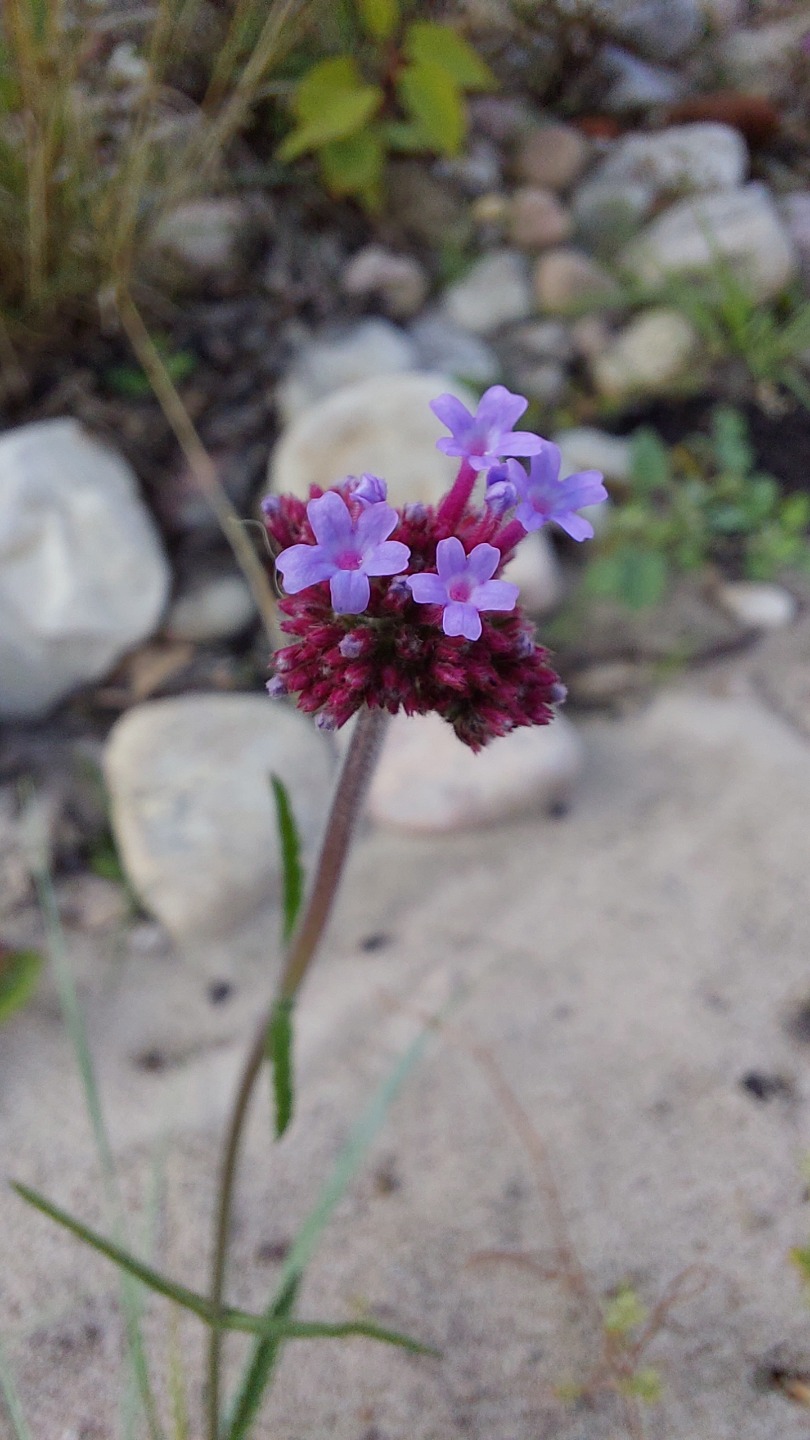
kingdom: Plantae
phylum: Tracheophyta
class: Magnoliopsida
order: Lamiales
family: Verbenaceae
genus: Verbena
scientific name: Verbena bonariensis
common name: Kæmpe-jernurt
